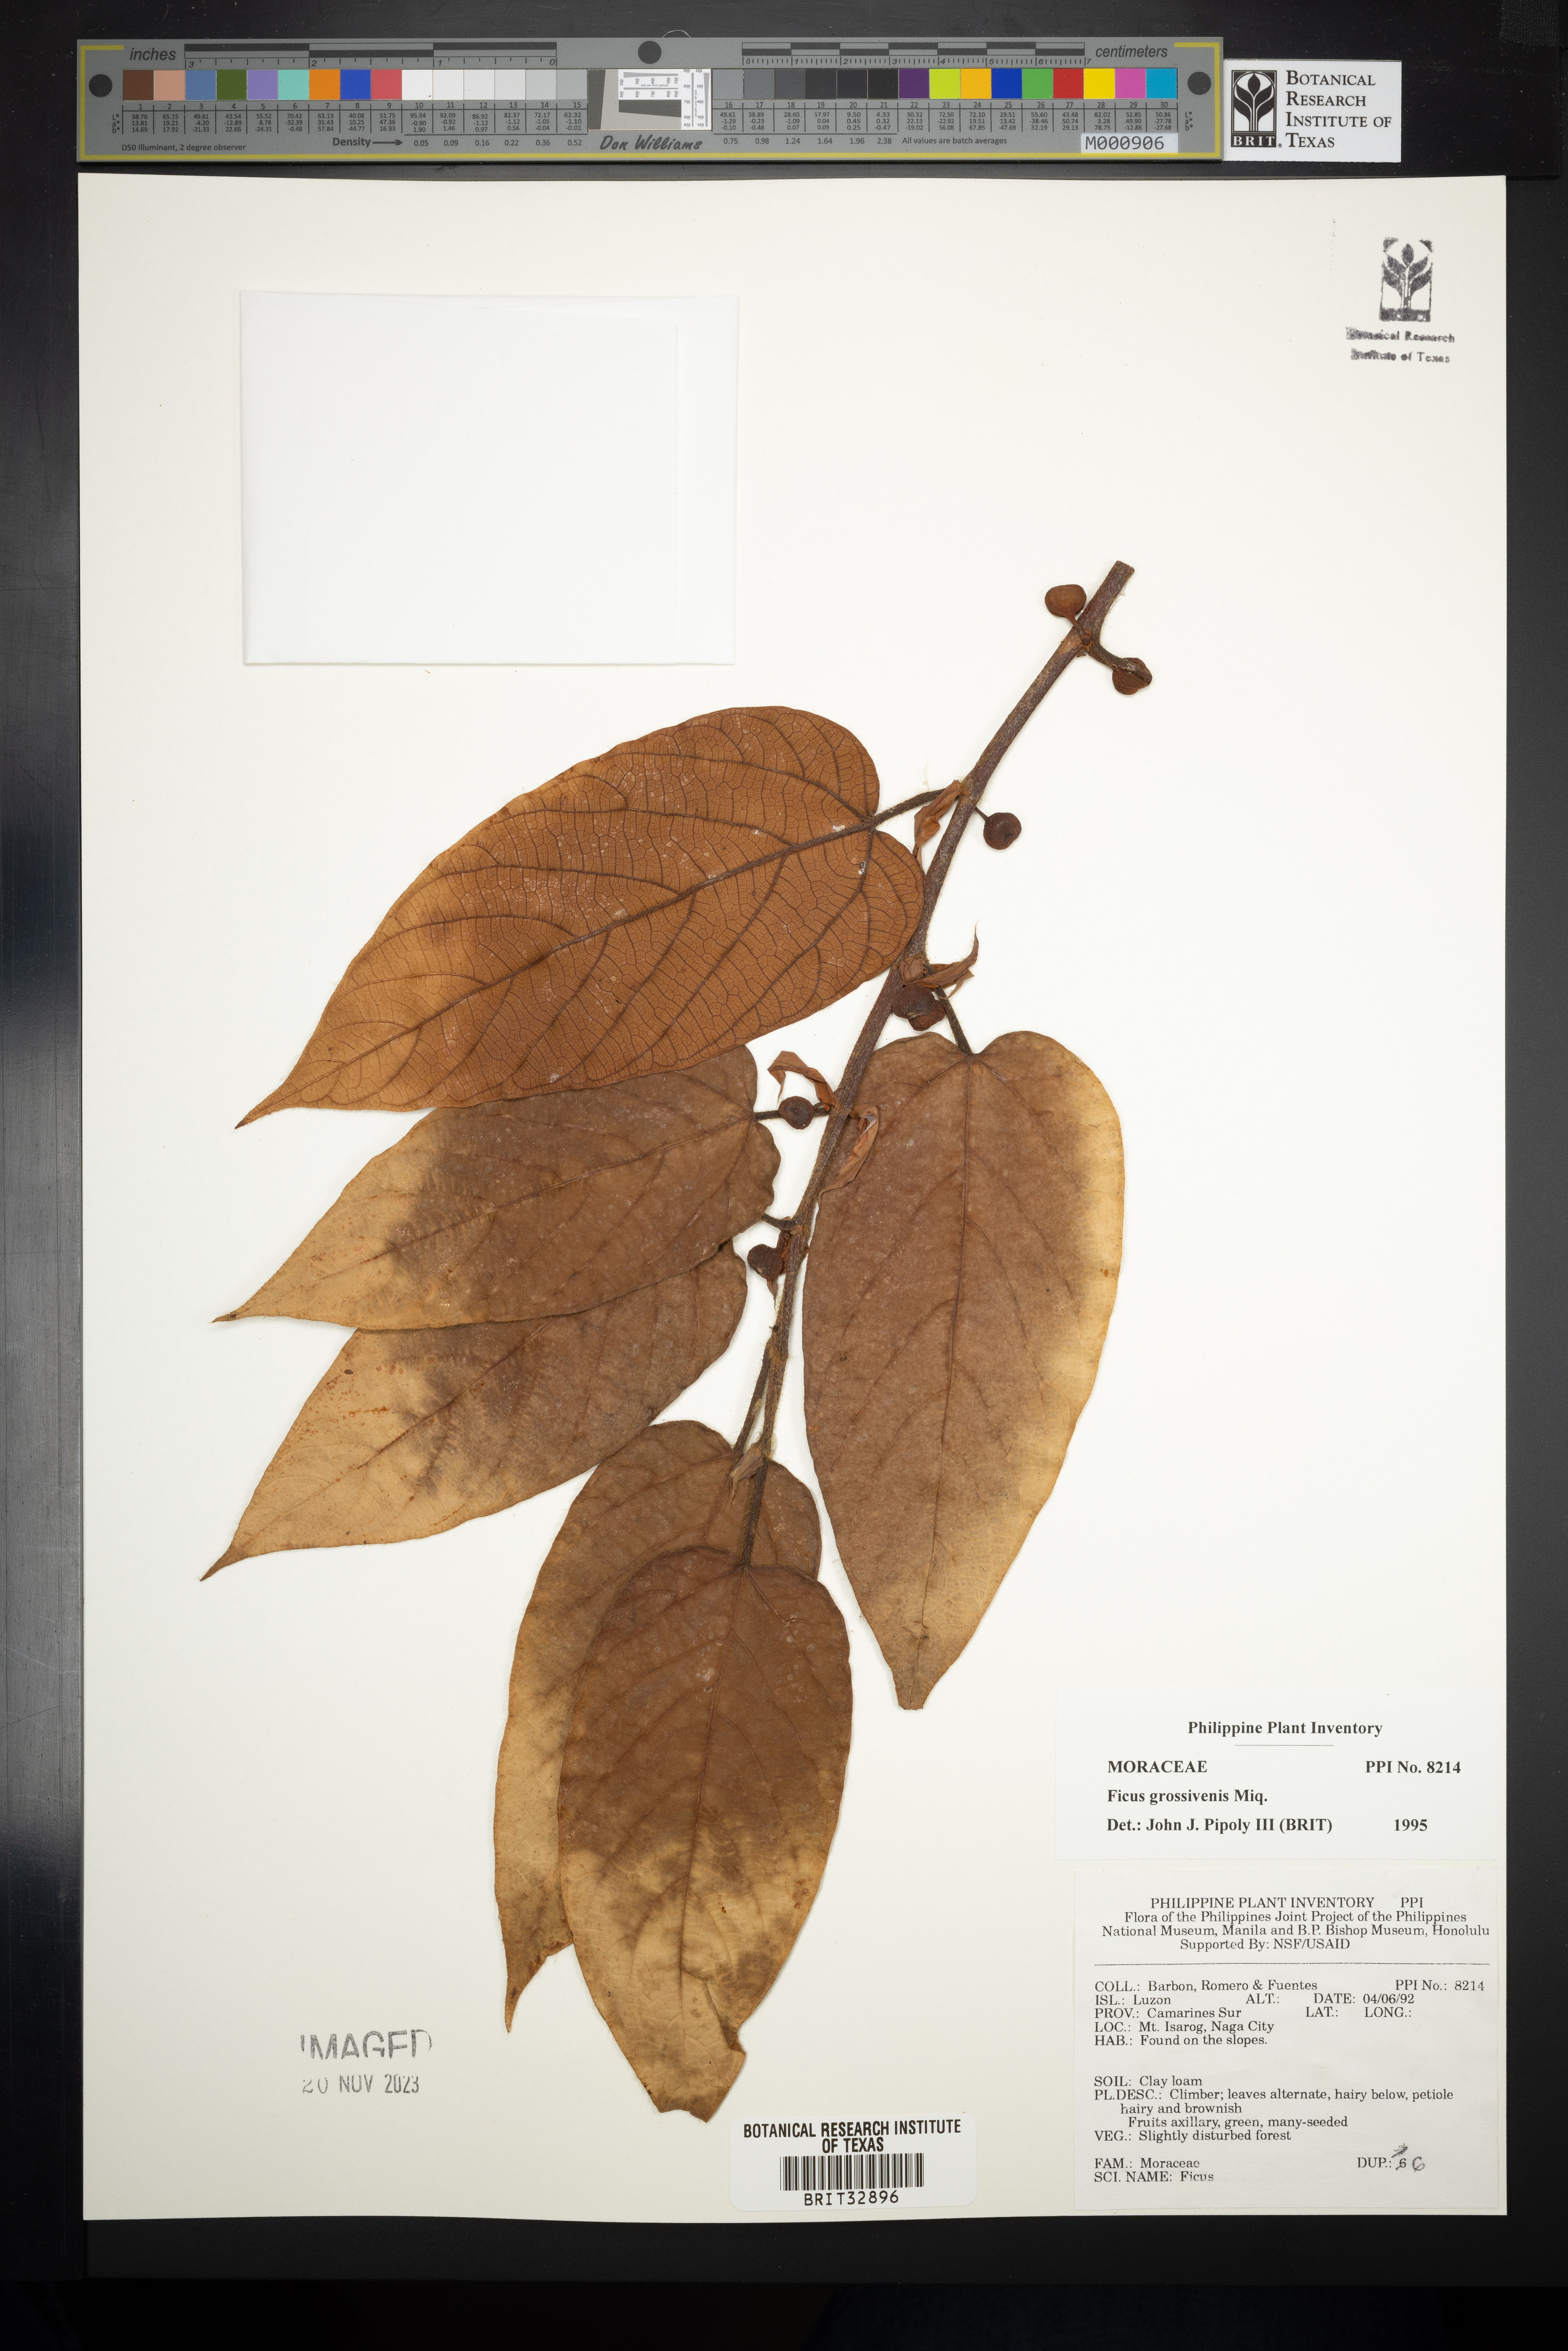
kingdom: Plantae
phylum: Tracheophyta
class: Magnoliopsida
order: Rosales
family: Moraceae
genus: Ficus
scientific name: Ficus villosa
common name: Villous fig
